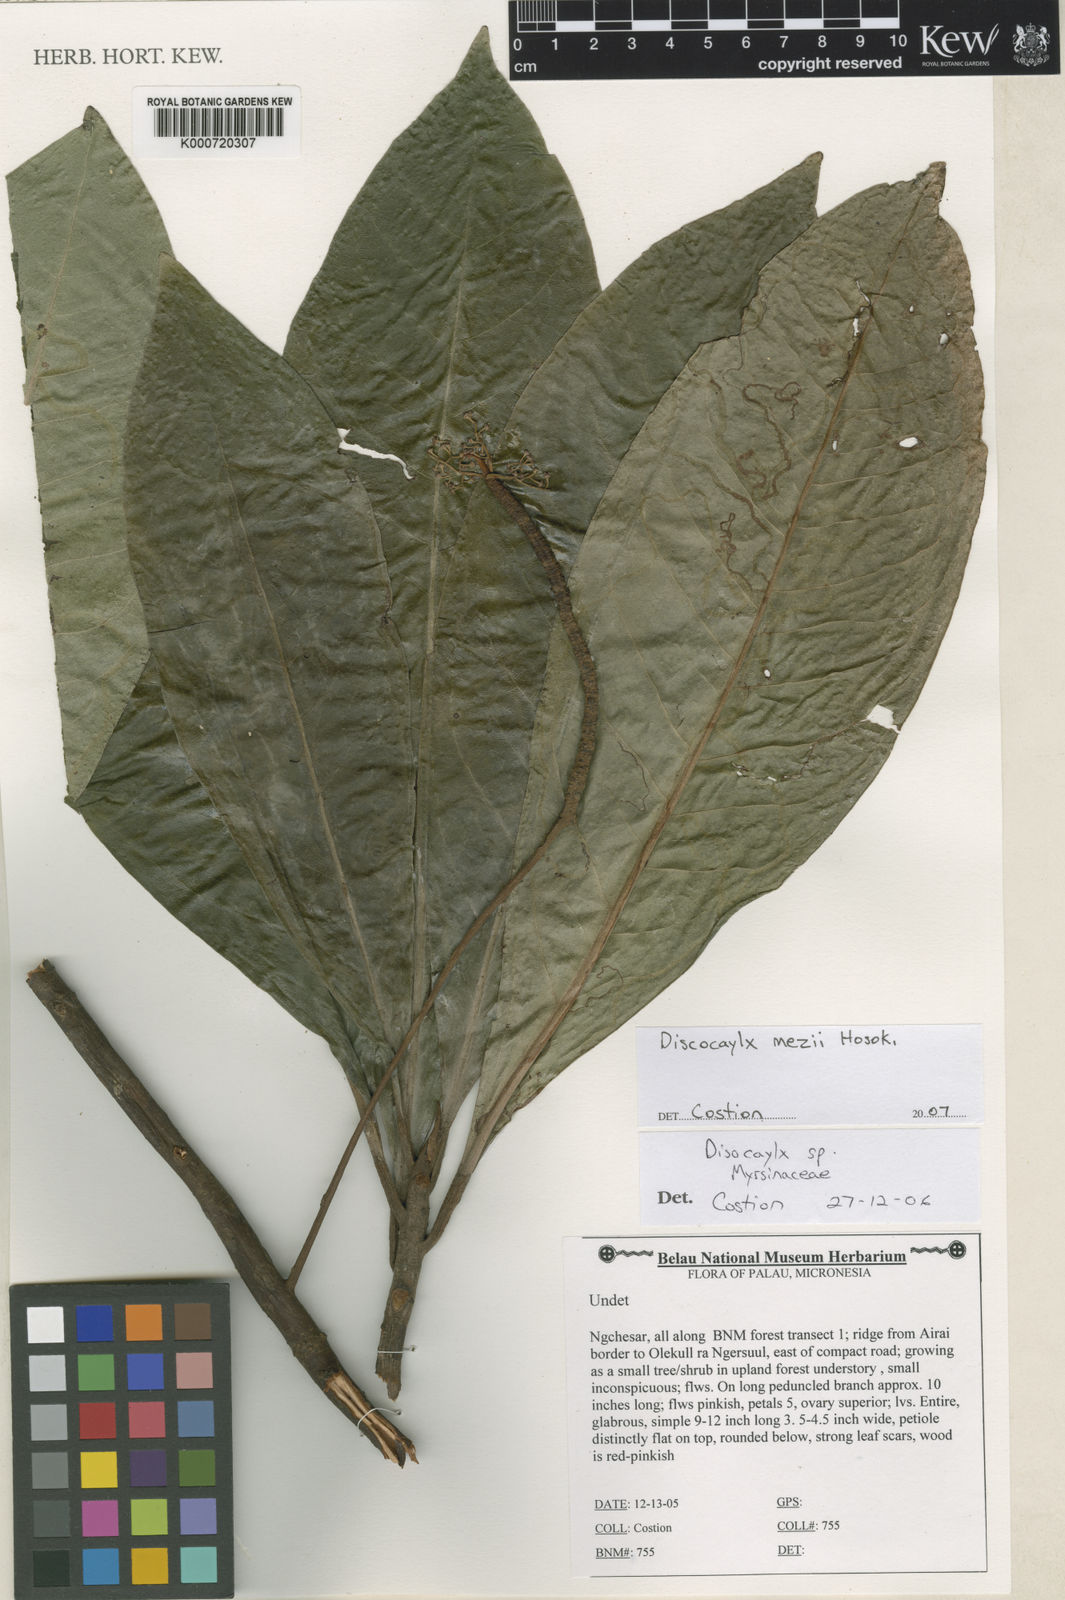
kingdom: Plantae
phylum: Tracheophyta
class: Magnoliopsida
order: Ericales
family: Primulaceae
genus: Discocalyx
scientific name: Discocalyx mezii
